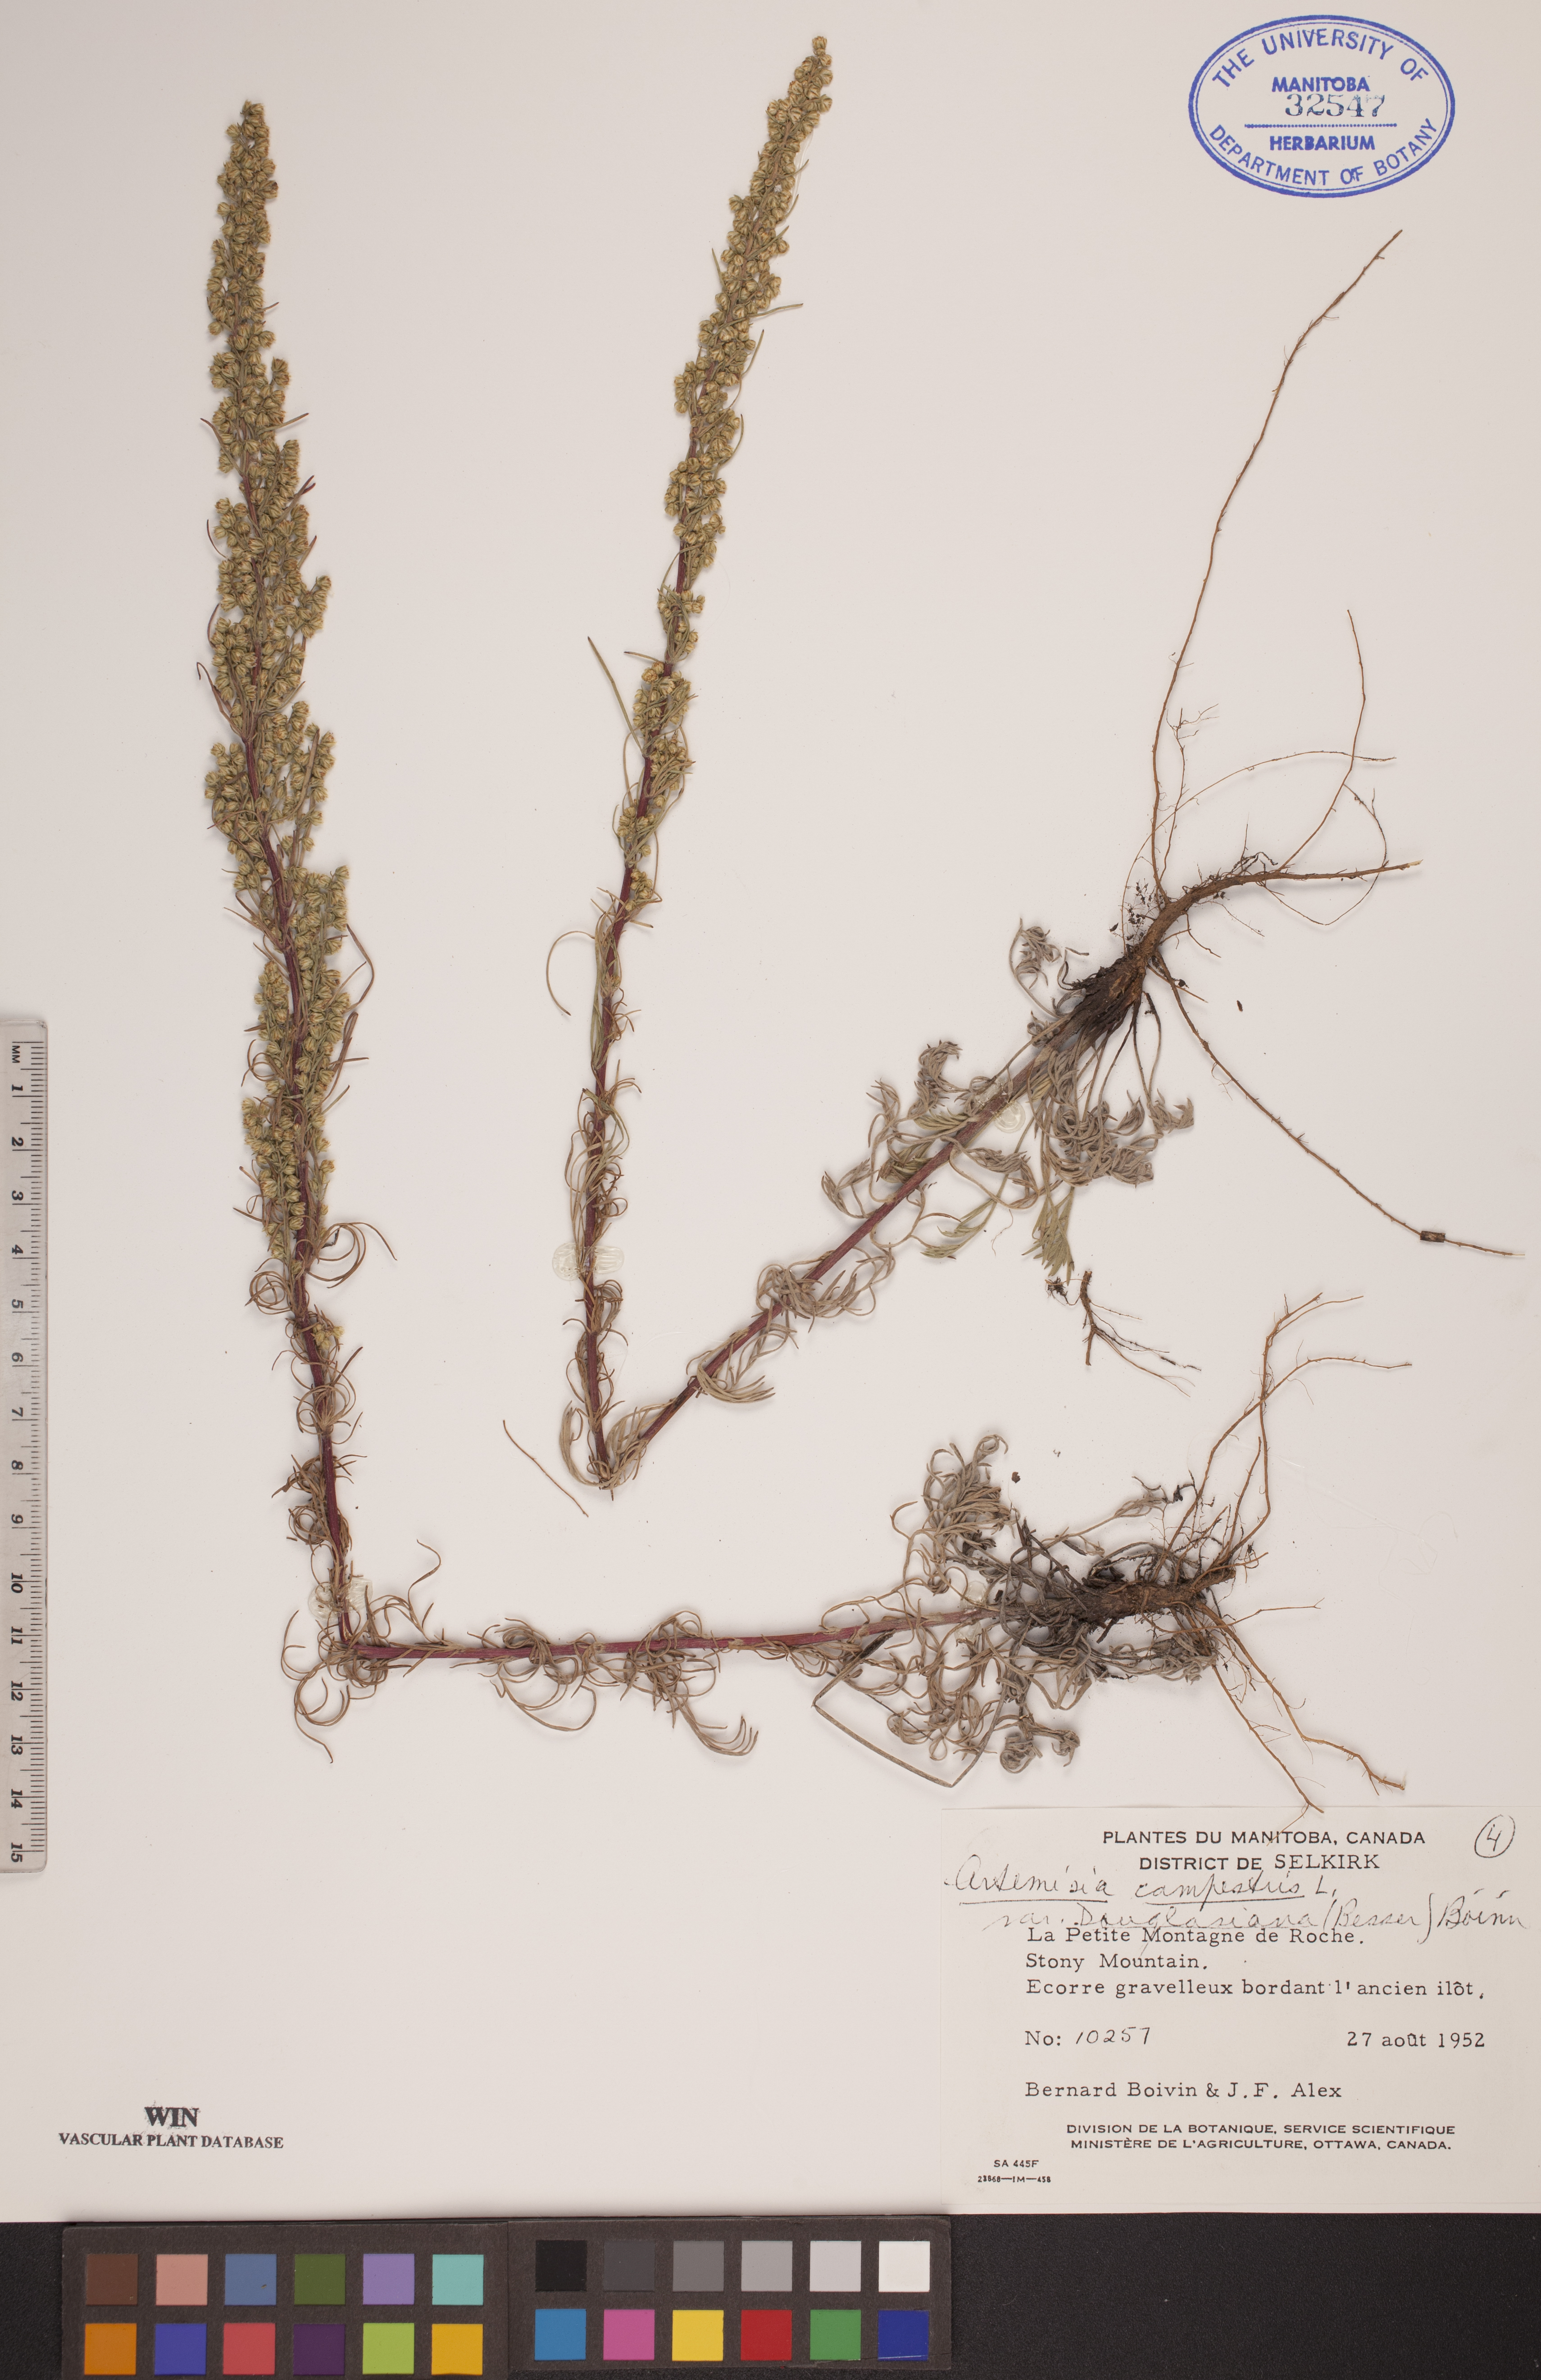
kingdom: Plantae
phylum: Tracheophyta
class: Magnoliopsida
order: Asterales
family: Asteraceae
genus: Artemisia
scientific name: Artemisia douglasiana
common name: Northwest mugwort
